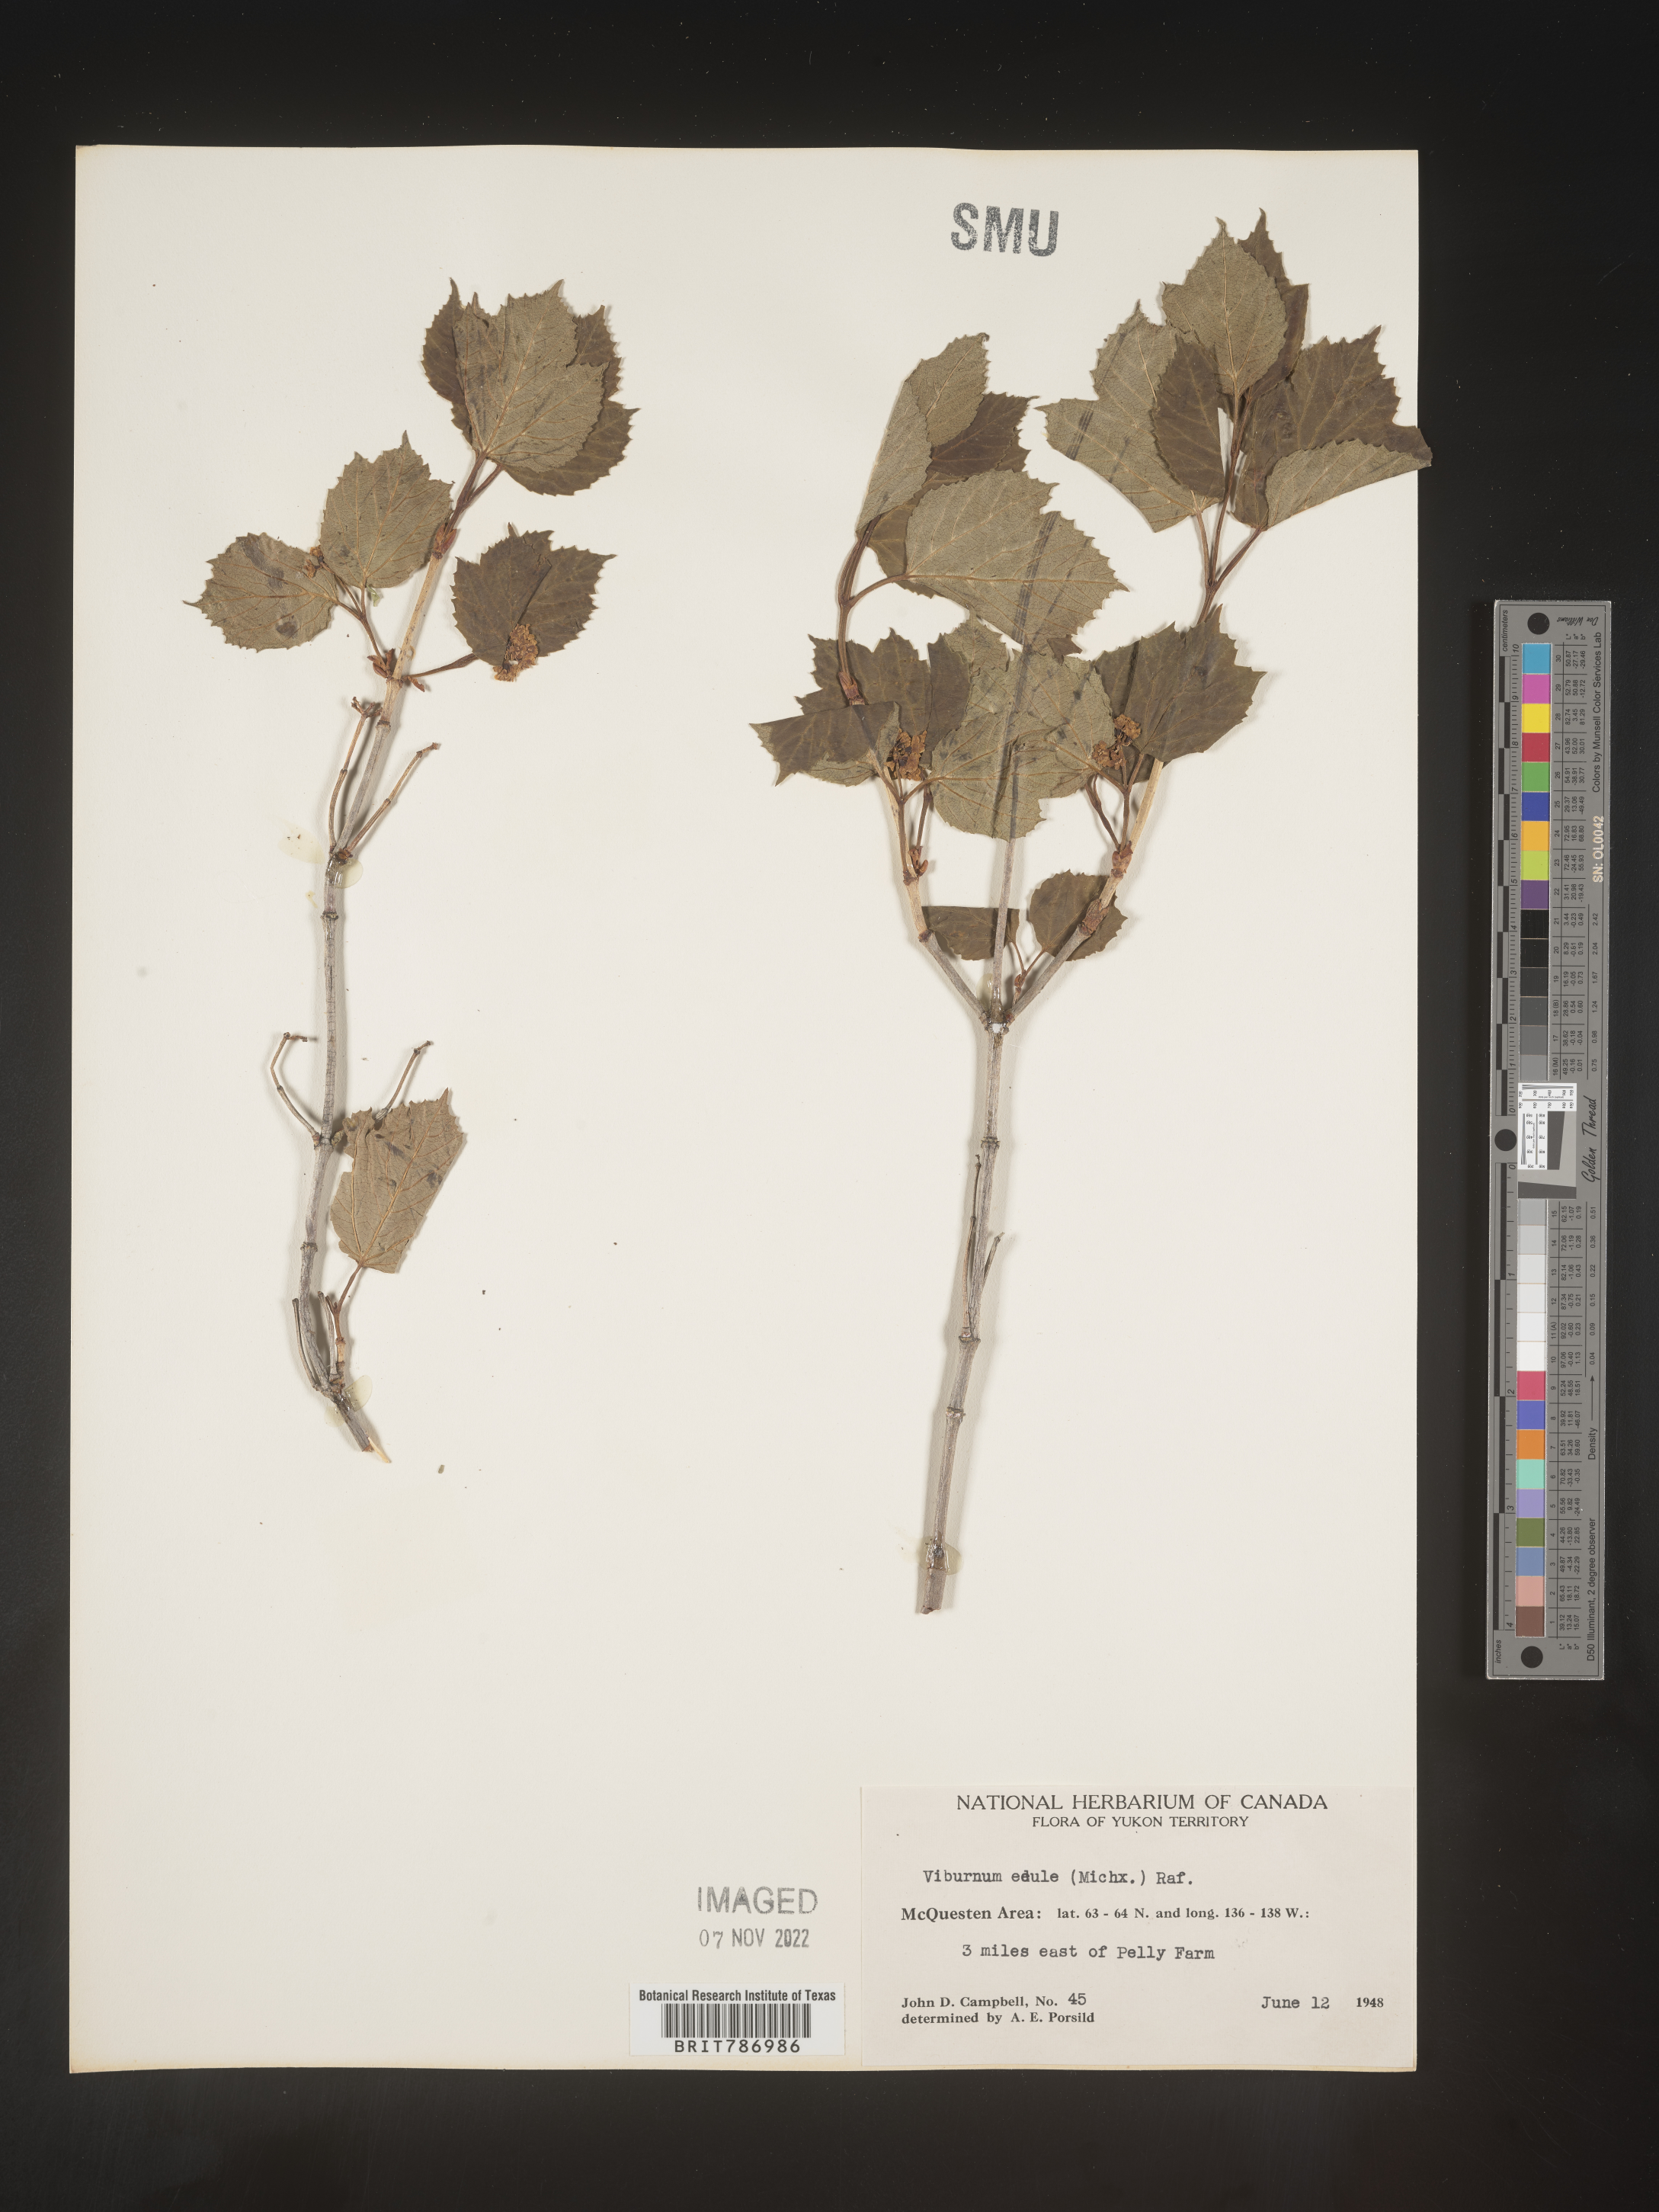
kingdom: Plantae
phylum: Tracheophyta
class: Magnoliopsida
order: Dipsacales
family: Viburnaceae
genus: Viburnum
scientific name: Viburnum edule
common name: Mooseberry
